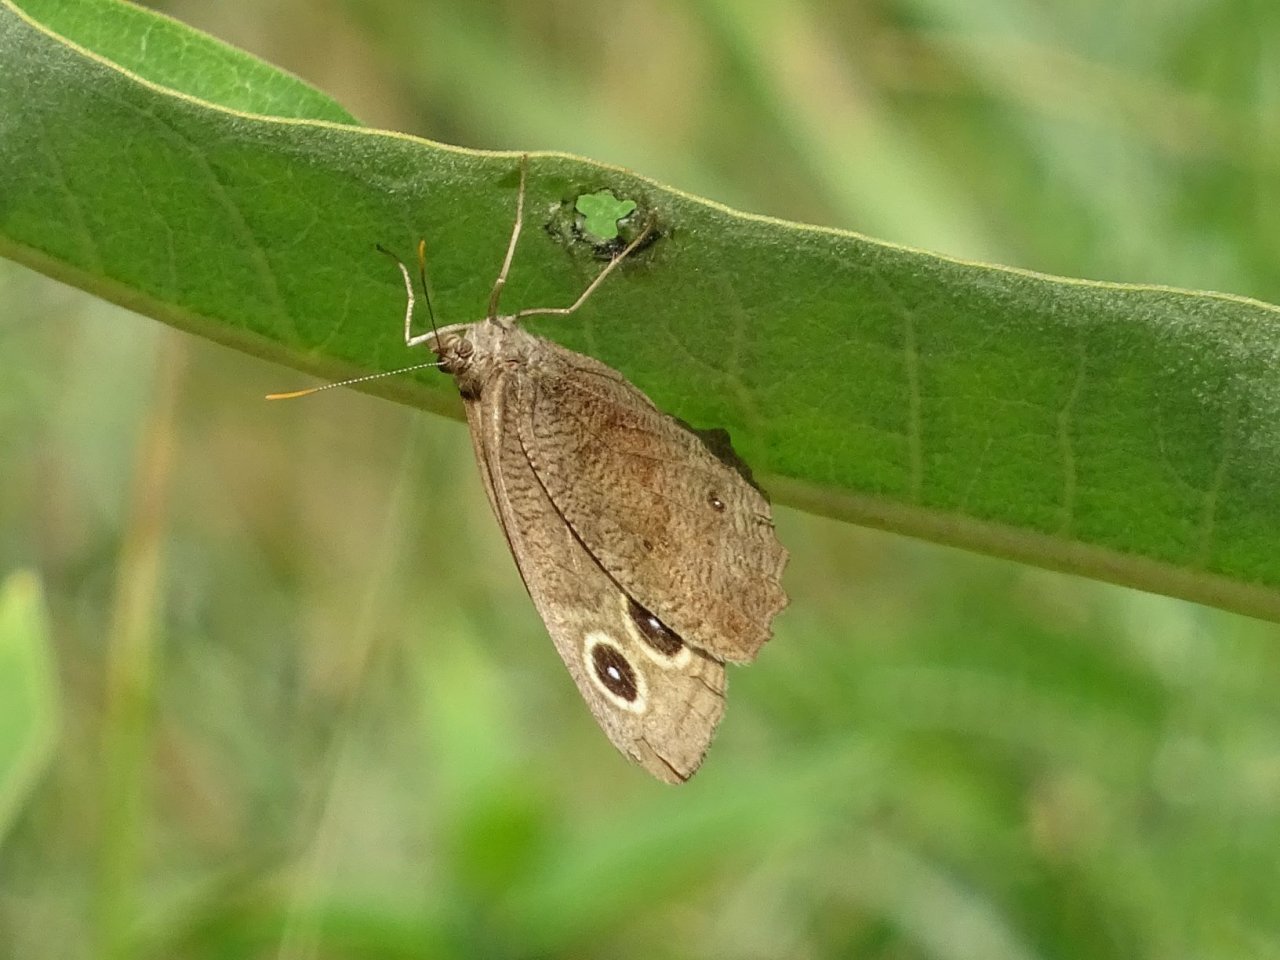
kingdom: Animalia
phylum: Arthropoda
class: Insecta
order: Lepidoptera
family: Nymphalidae
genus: Cercyonis
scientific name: Cercyonis pegala
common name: Common Wood-Nymph
